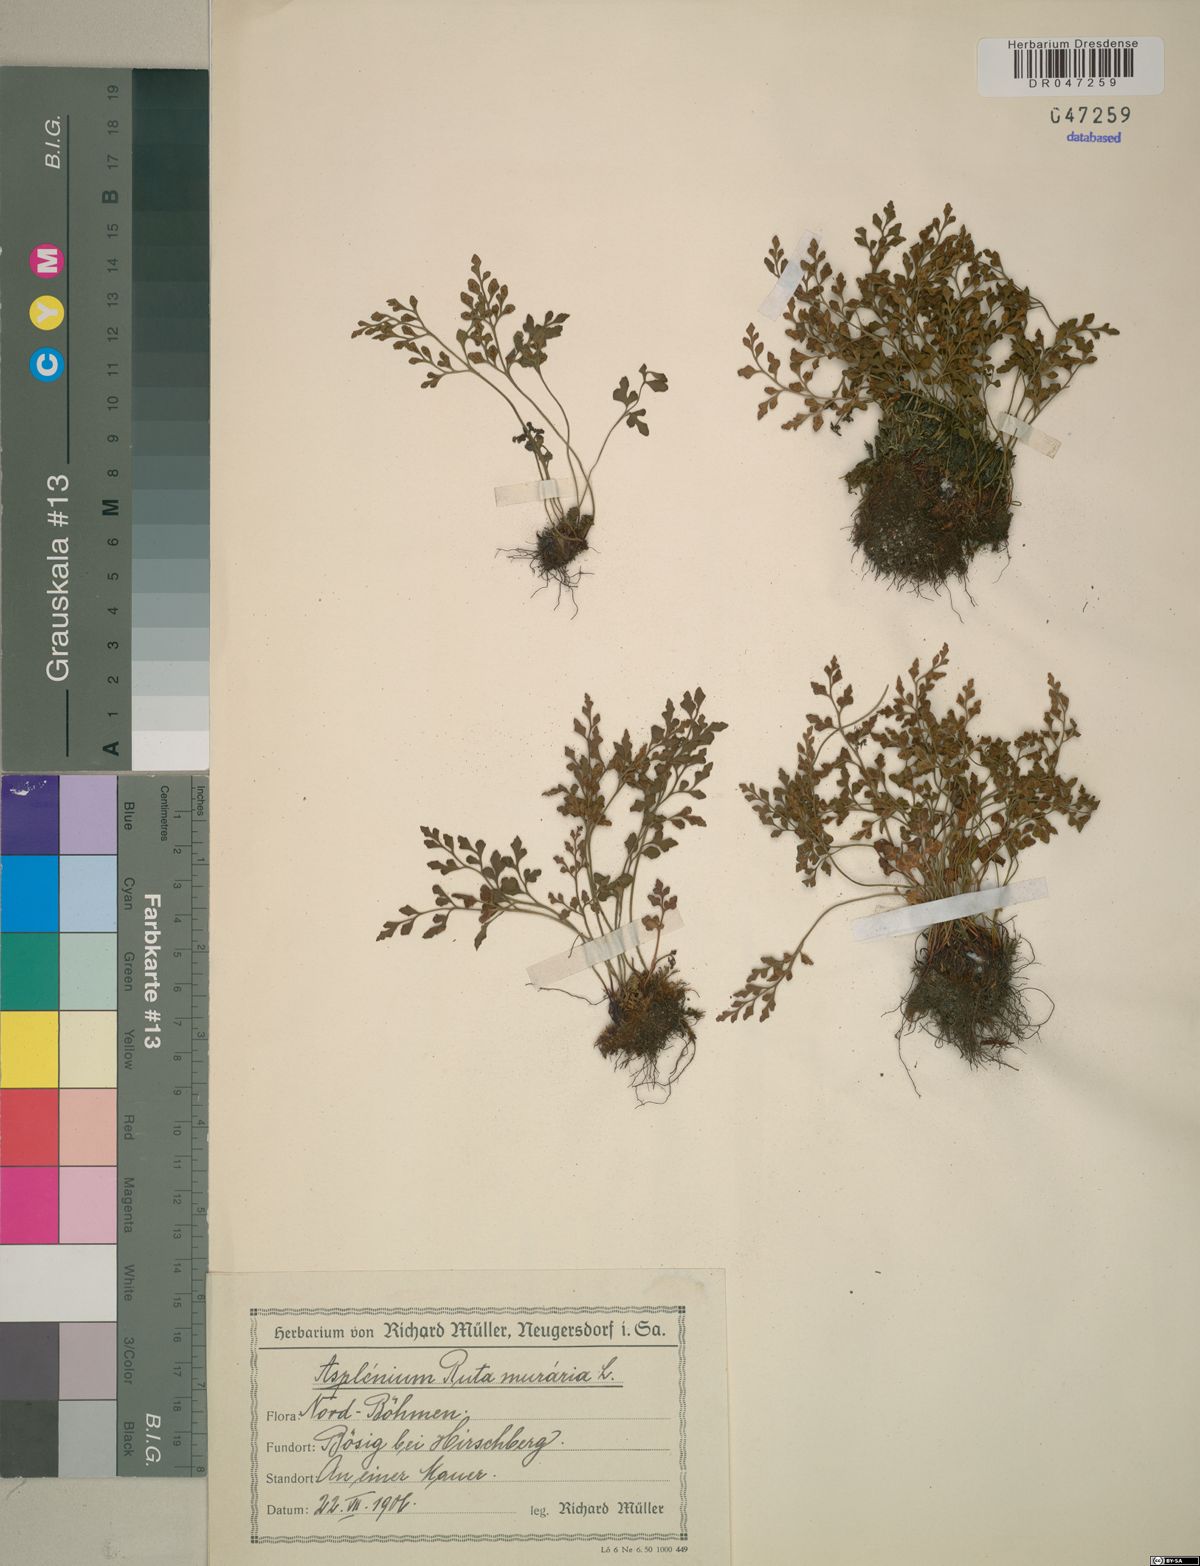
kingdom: Plantae
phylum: Tracheophyta
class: Polypodiopsida
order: Polypodiales
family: Aspleniaceae
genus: Asplenium
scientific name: Asplenium ruta-muraria
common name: Wall-rue
